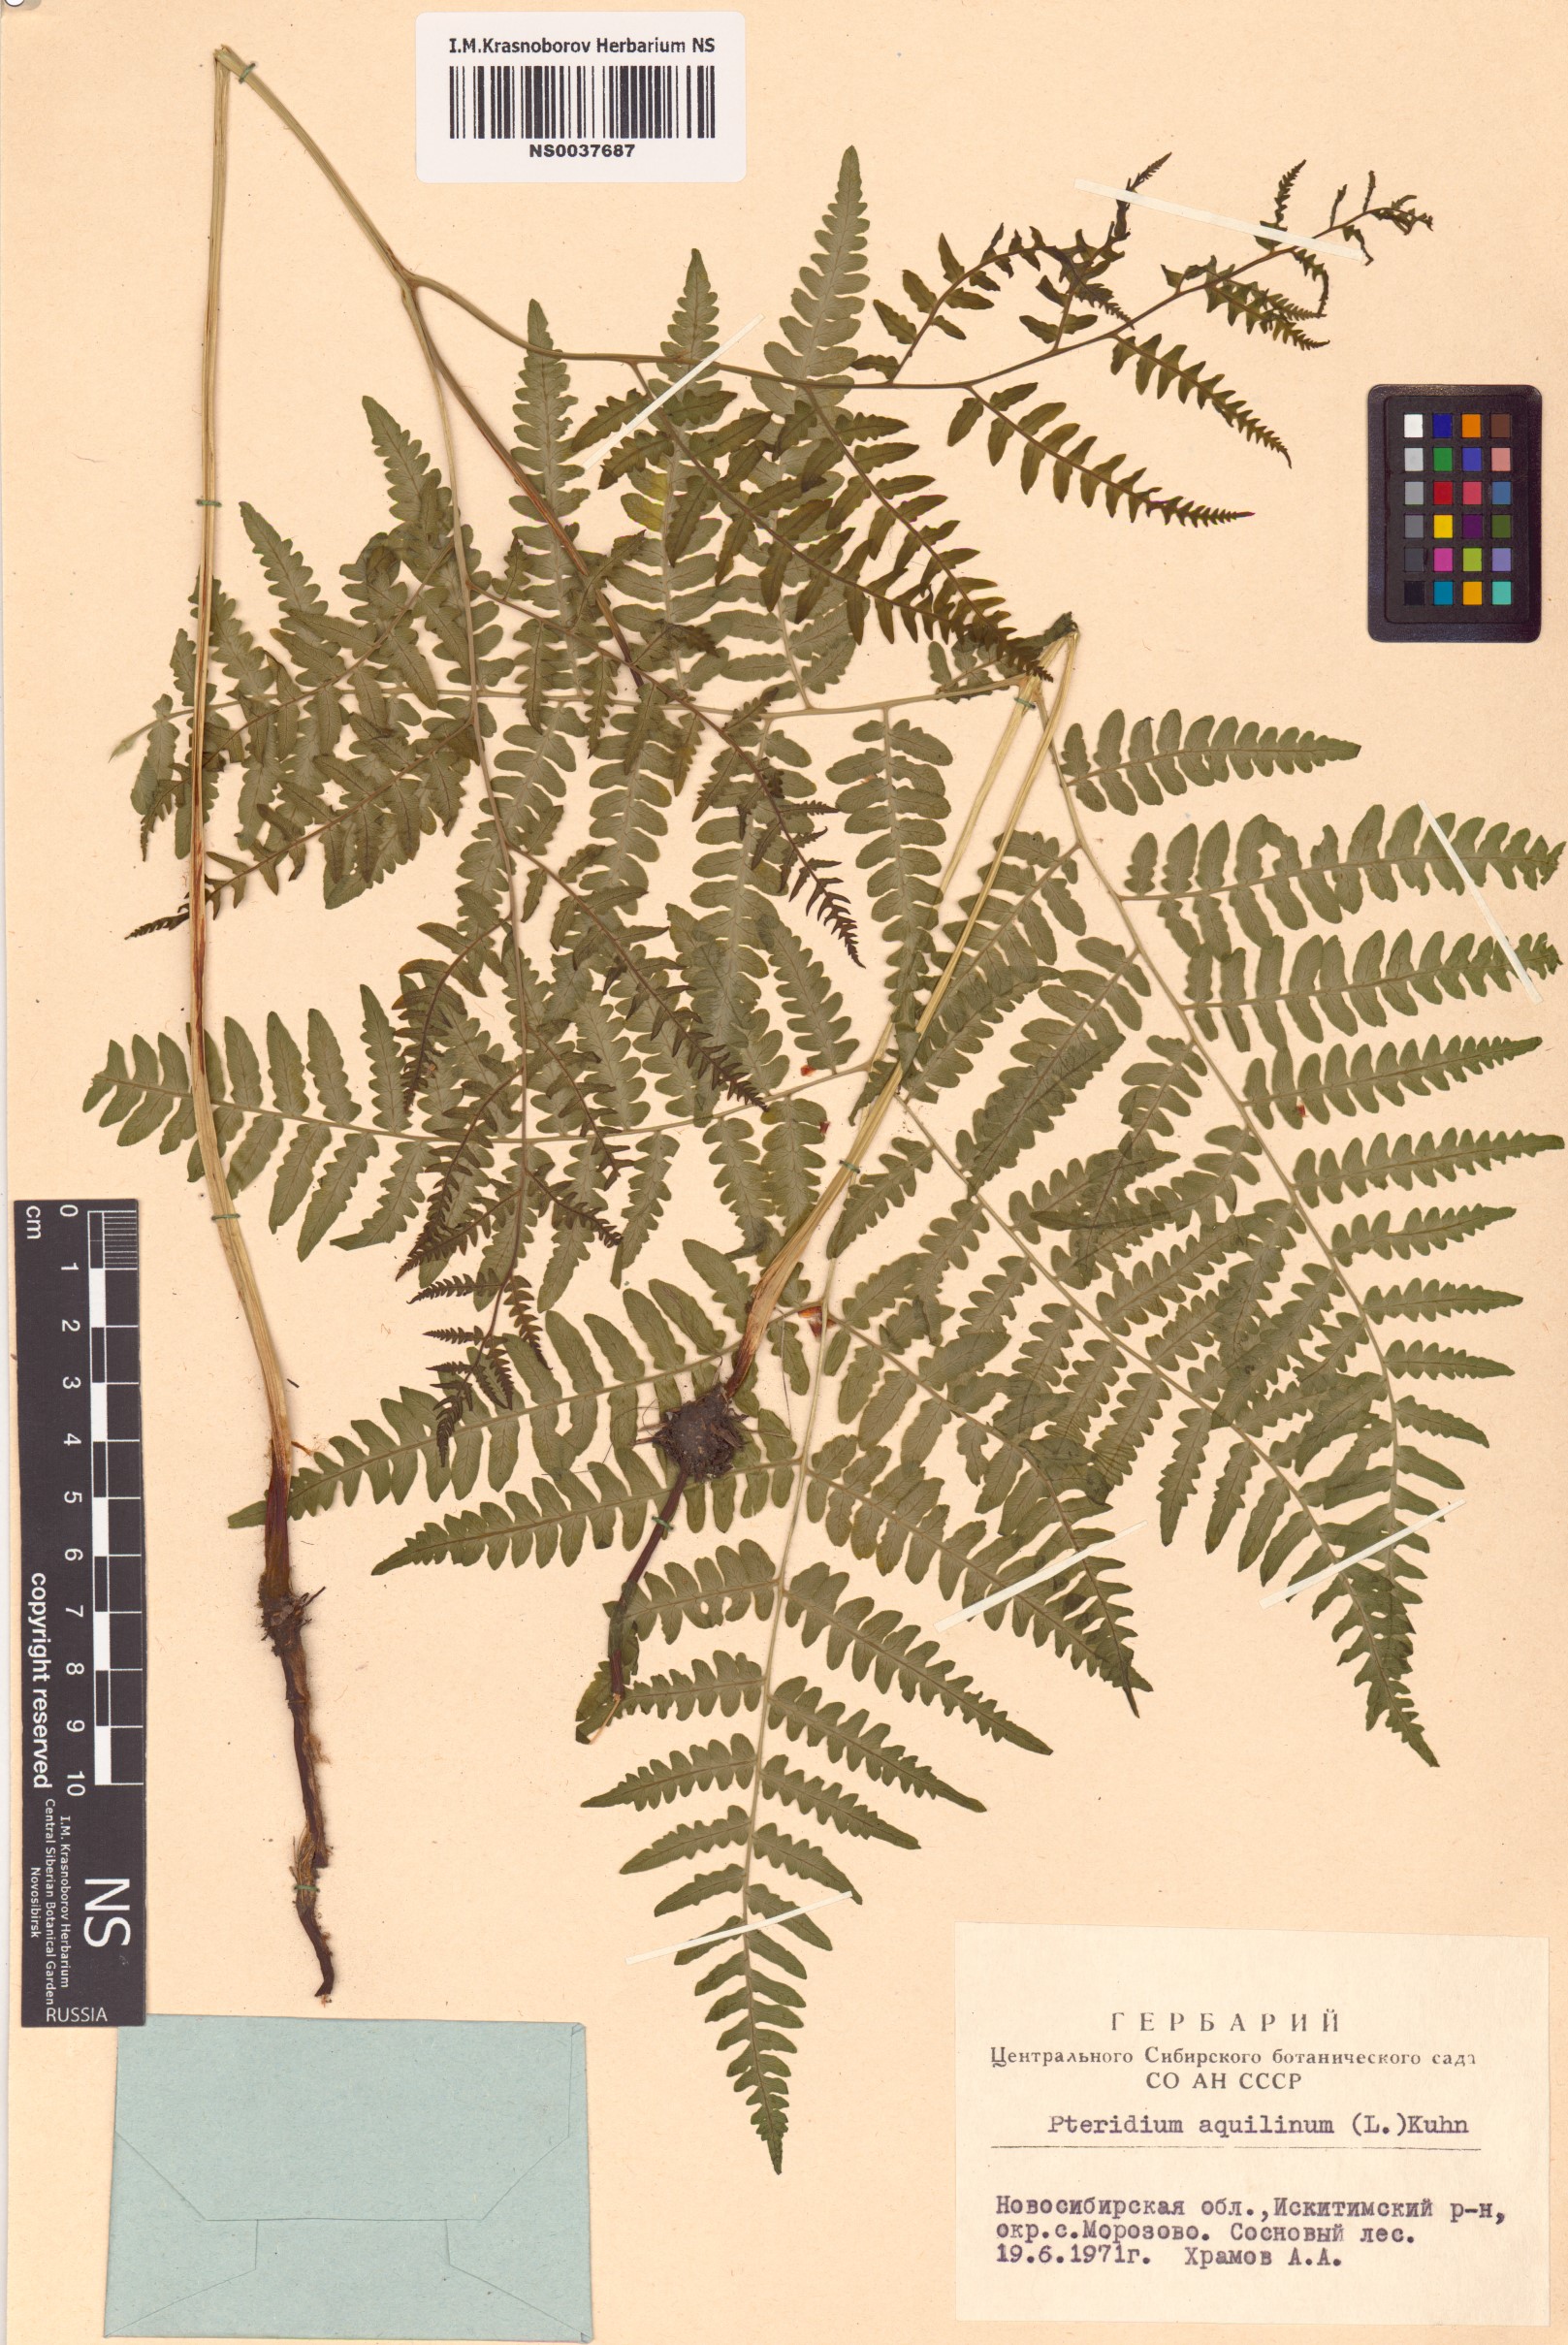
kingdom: Plantae
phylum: Tracheophyta
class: Polypodiopsida
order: Polypodiales
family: Dennstaedtiaceae
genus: Pteridium
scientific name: Pteridium aquilinum
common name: Bracken
